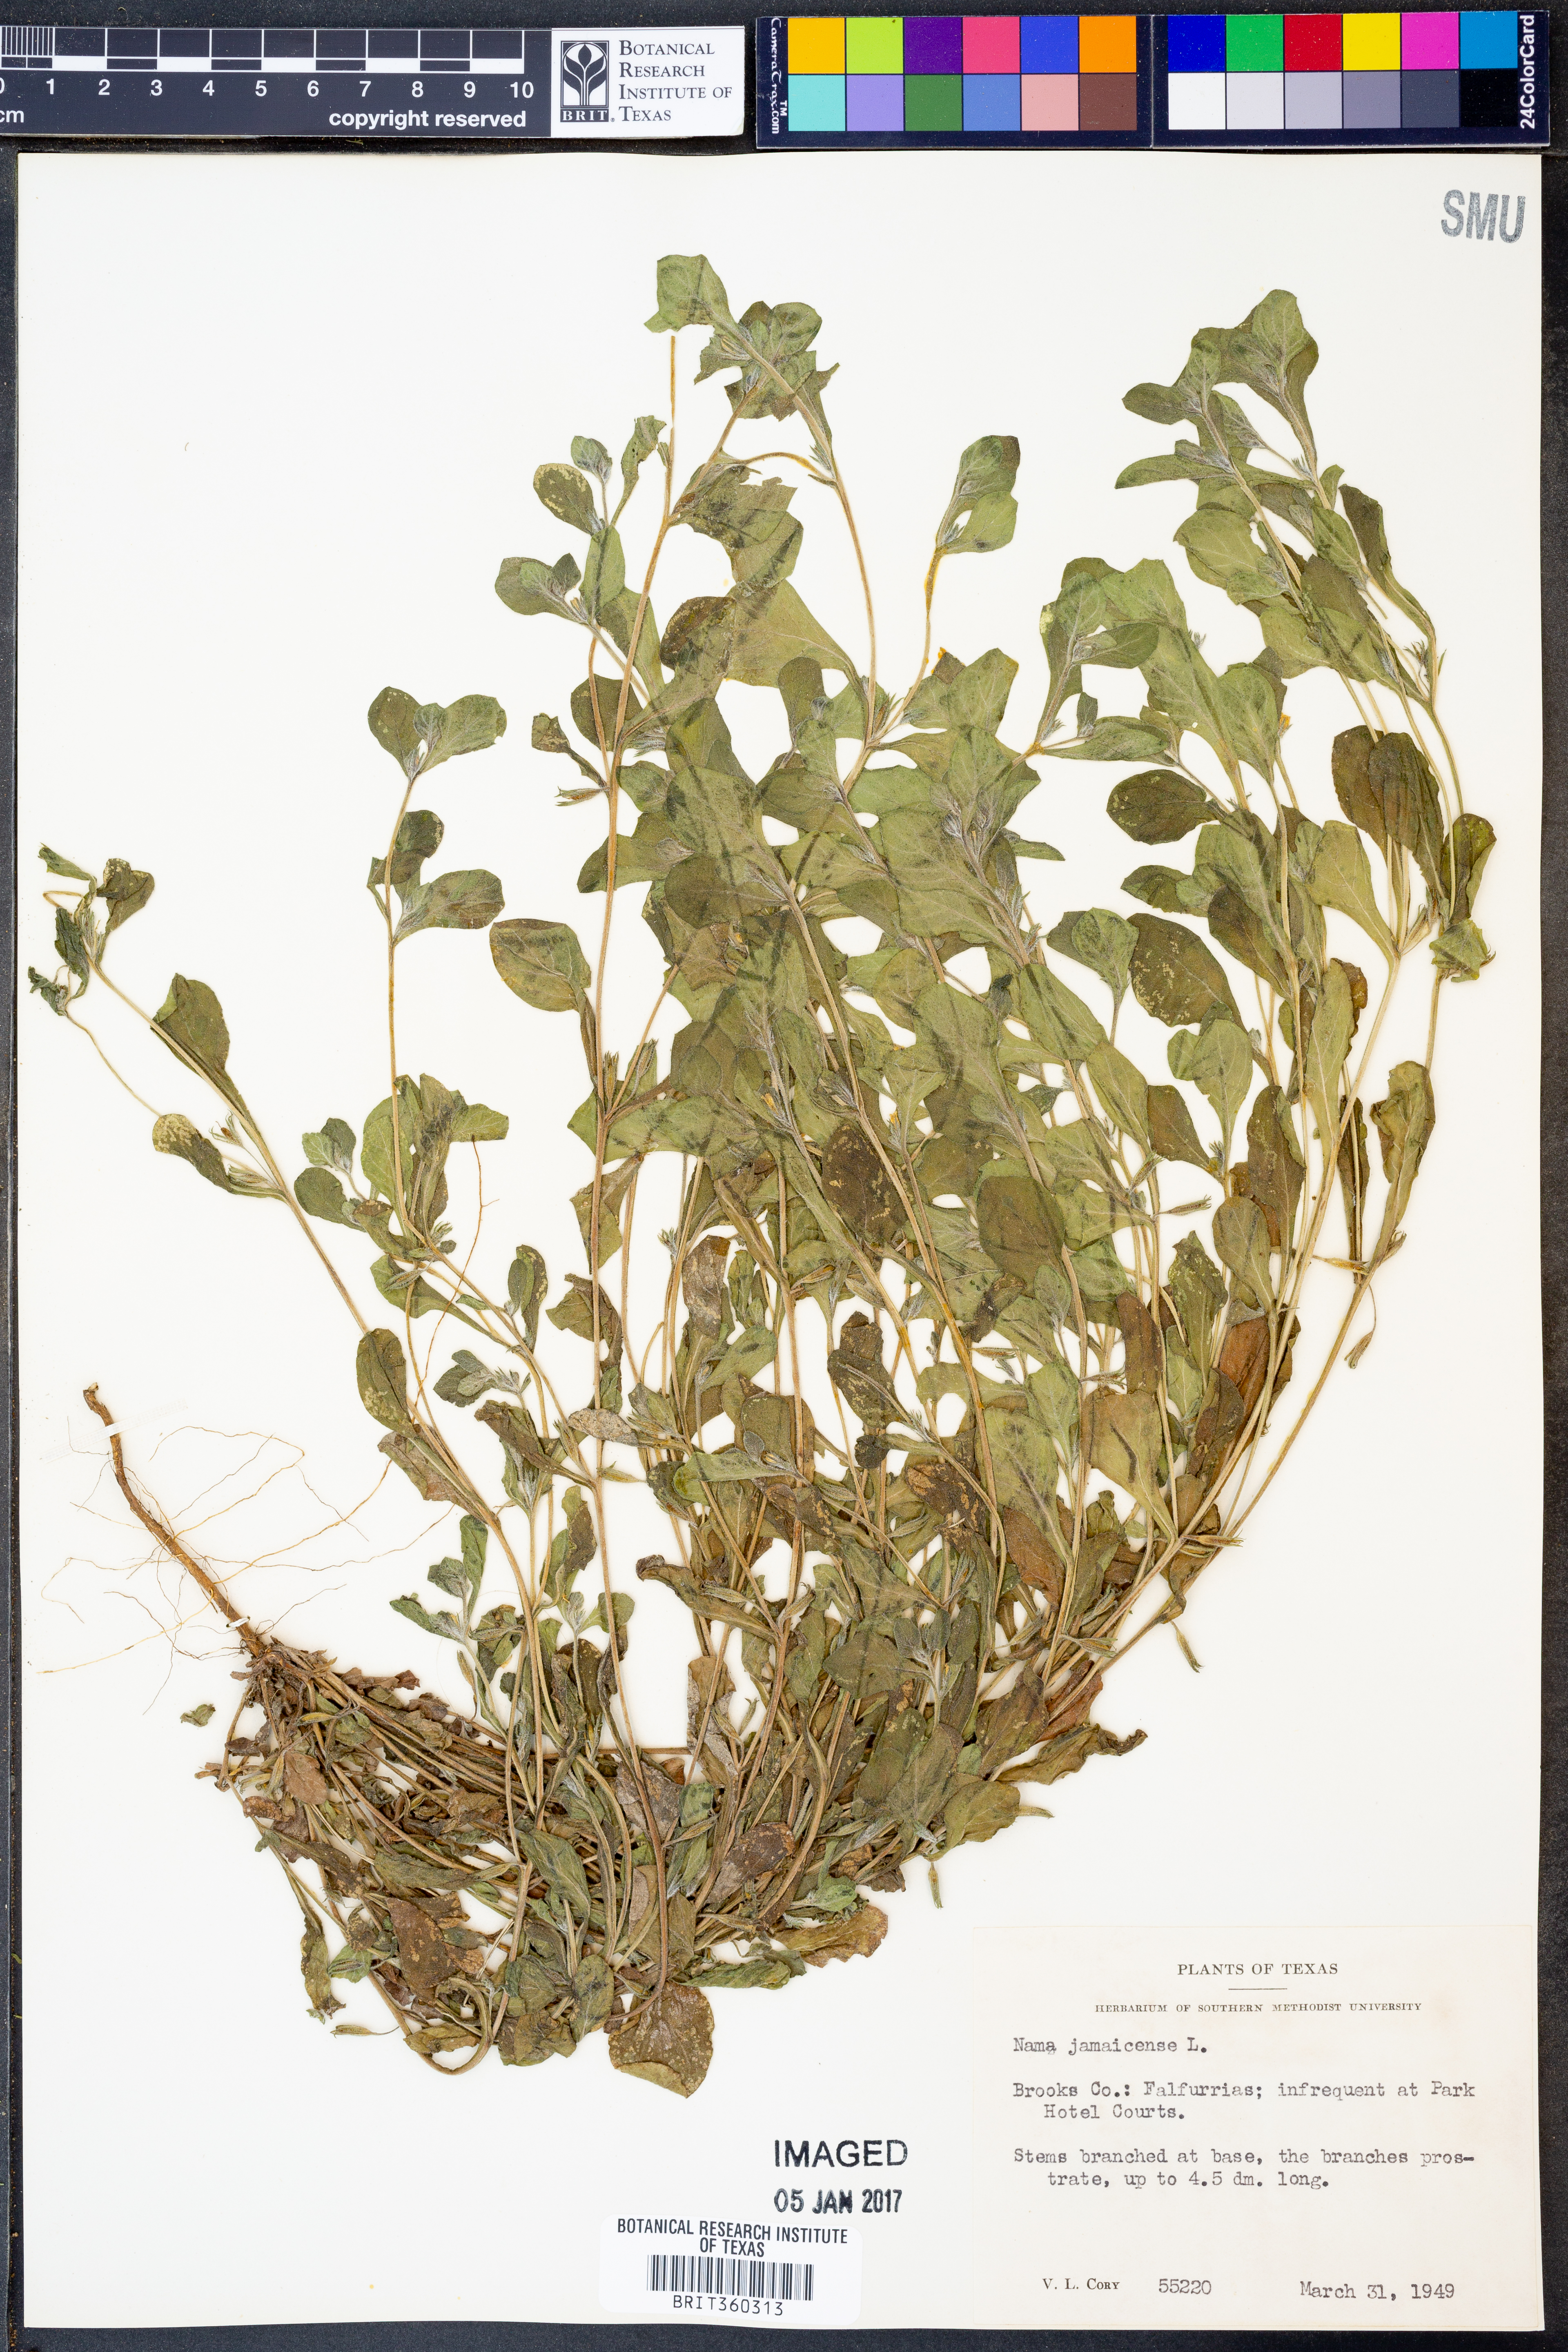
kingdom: Plantae
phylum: Tracheophyta
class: Magnoliopsida
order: Boraginales
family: Namaceae
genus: Nama
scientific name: Nama jamaicense
